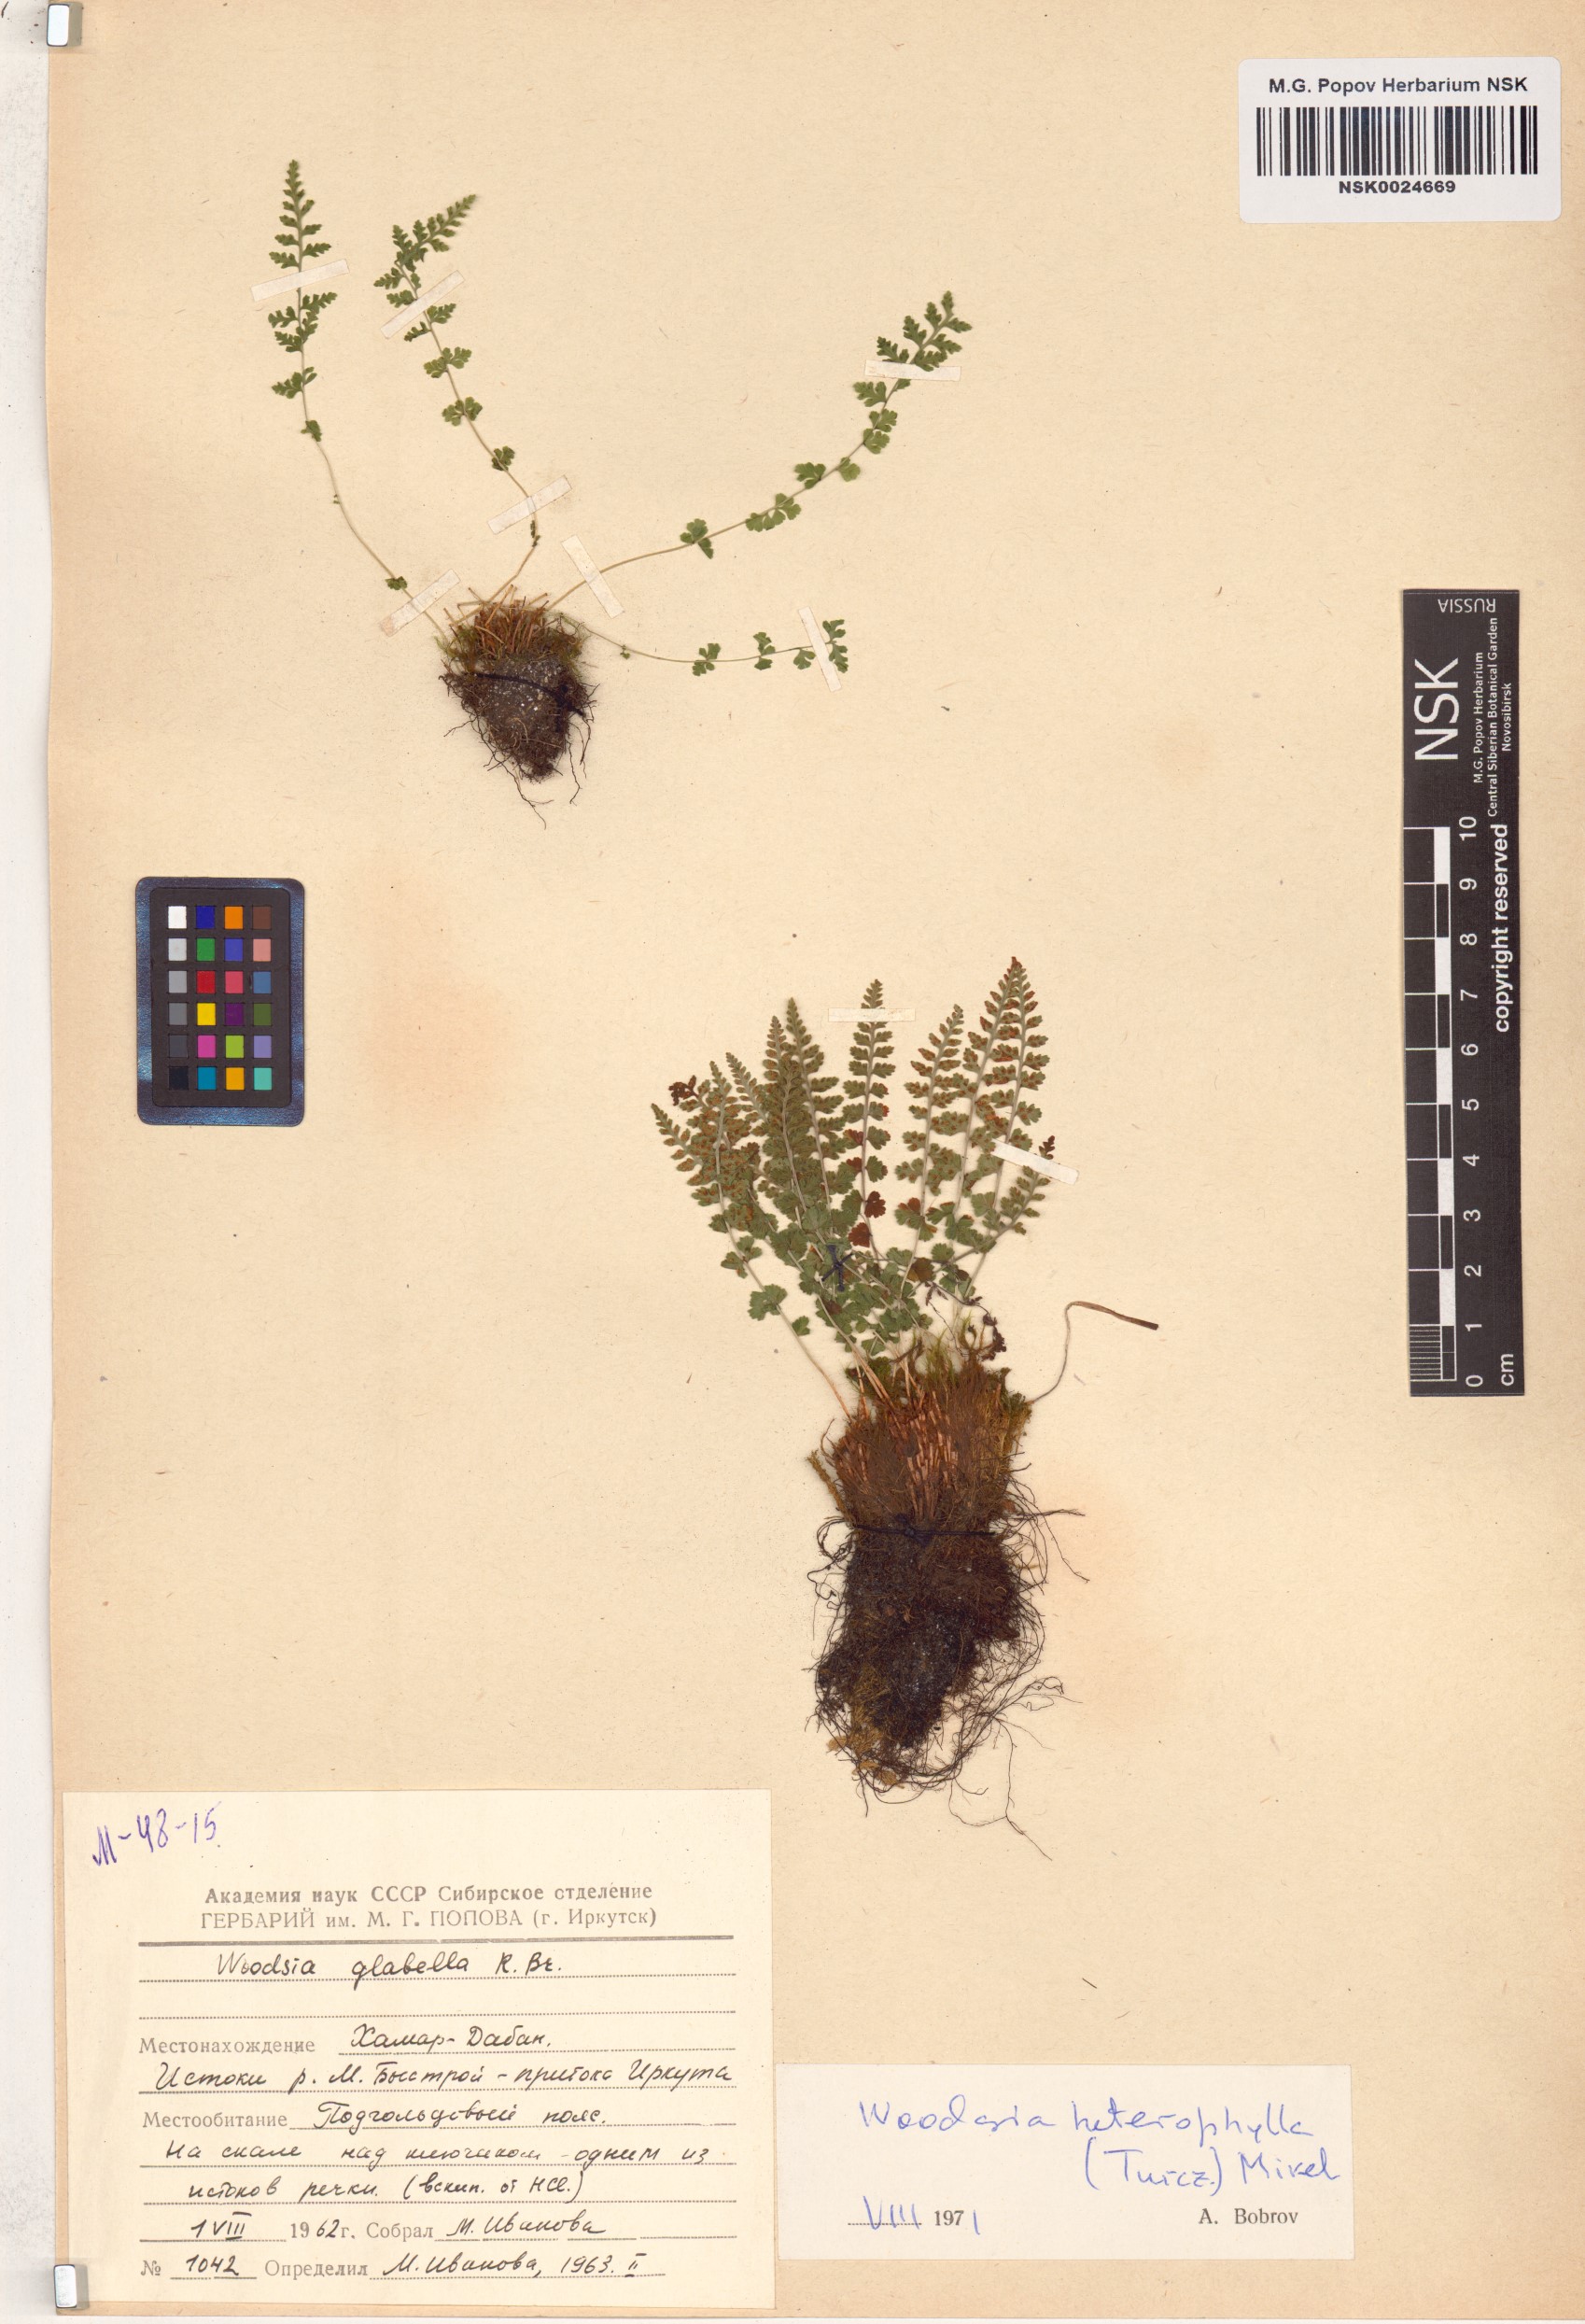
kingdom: Plantae
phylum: Tracheophyta
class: Polypodiopsida
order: Polypodiales
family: Woodsiaceae
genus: Woodsia
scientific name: Woodsia pulchella
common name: Graceful woodsia
